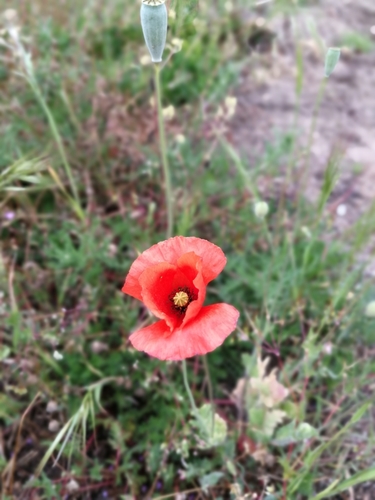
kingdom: Plantae
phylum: Tracheophyta
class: Magnoliopsida
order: Ranunculales
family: Papaveraceae
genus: Papaver
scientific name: Papaver rhoeas
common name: Corn poppy
